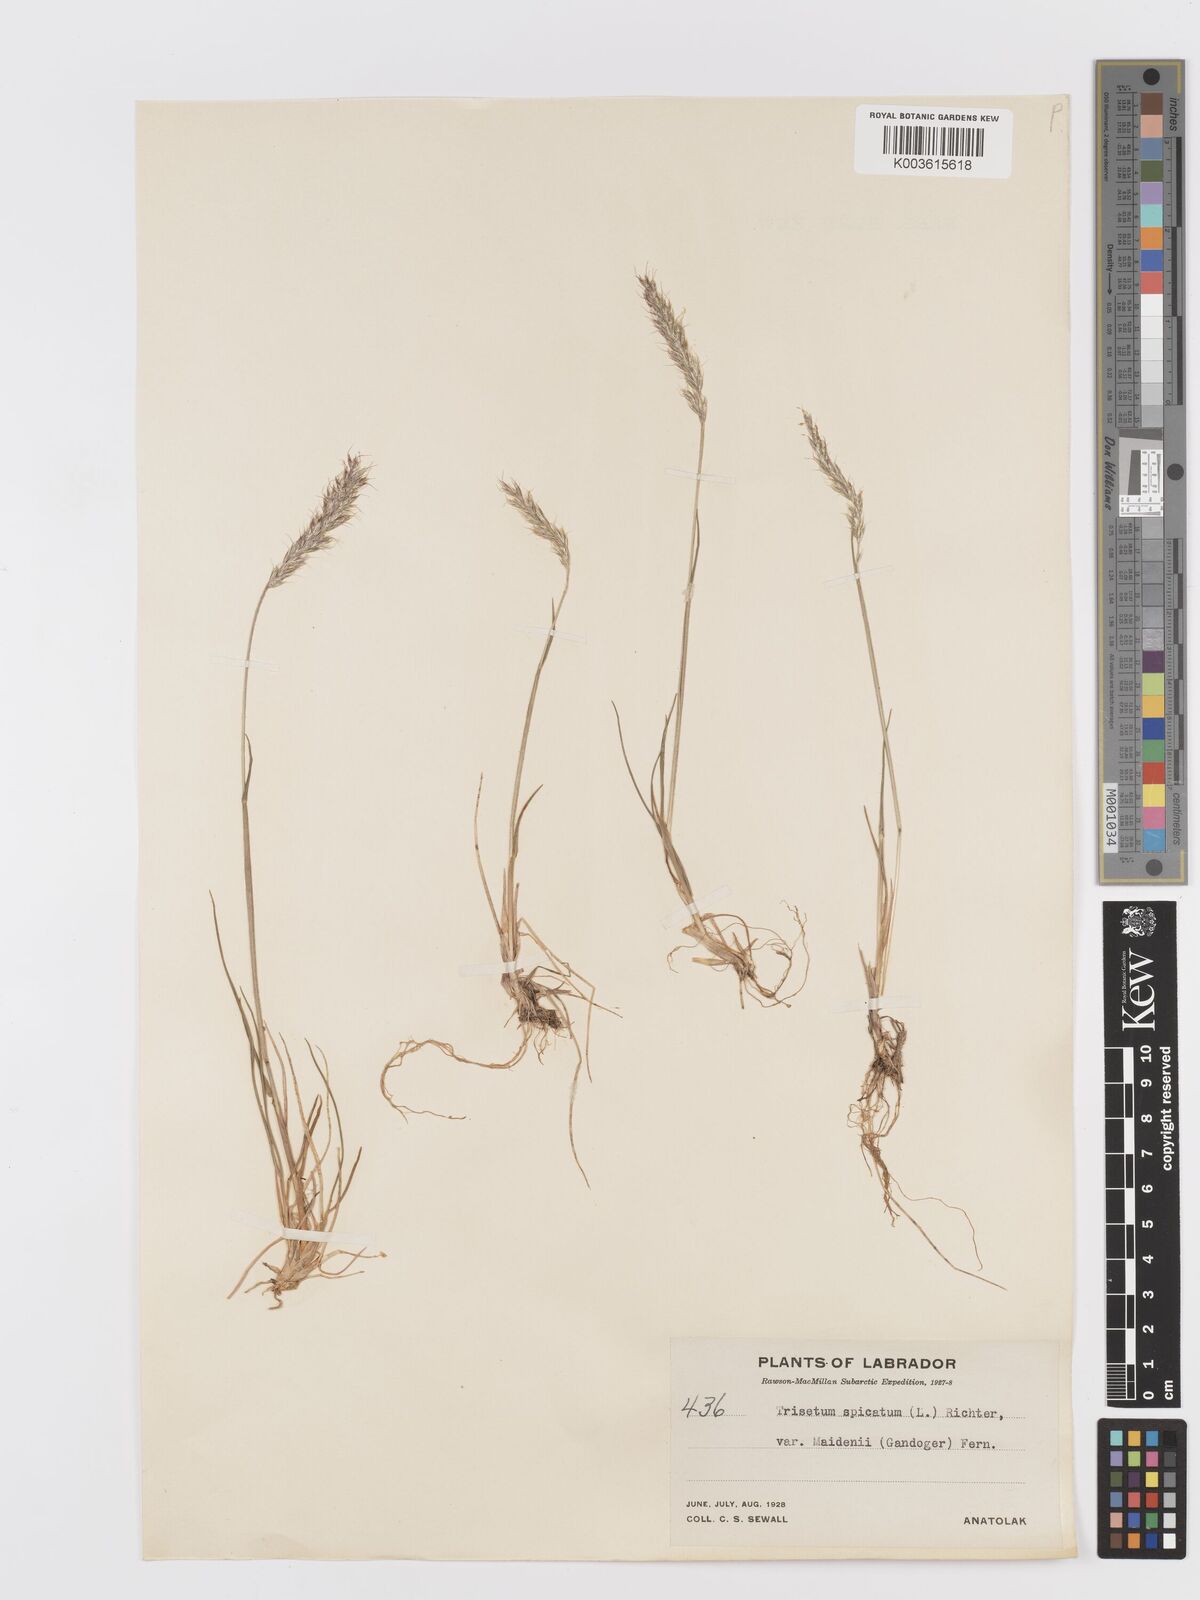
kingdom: Plantae
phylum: Tracheophyta
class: Liliopsida
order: Poales
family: Poaceae
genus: Koeleria
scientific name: Koeleria spicata
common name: Mountain trisetum
